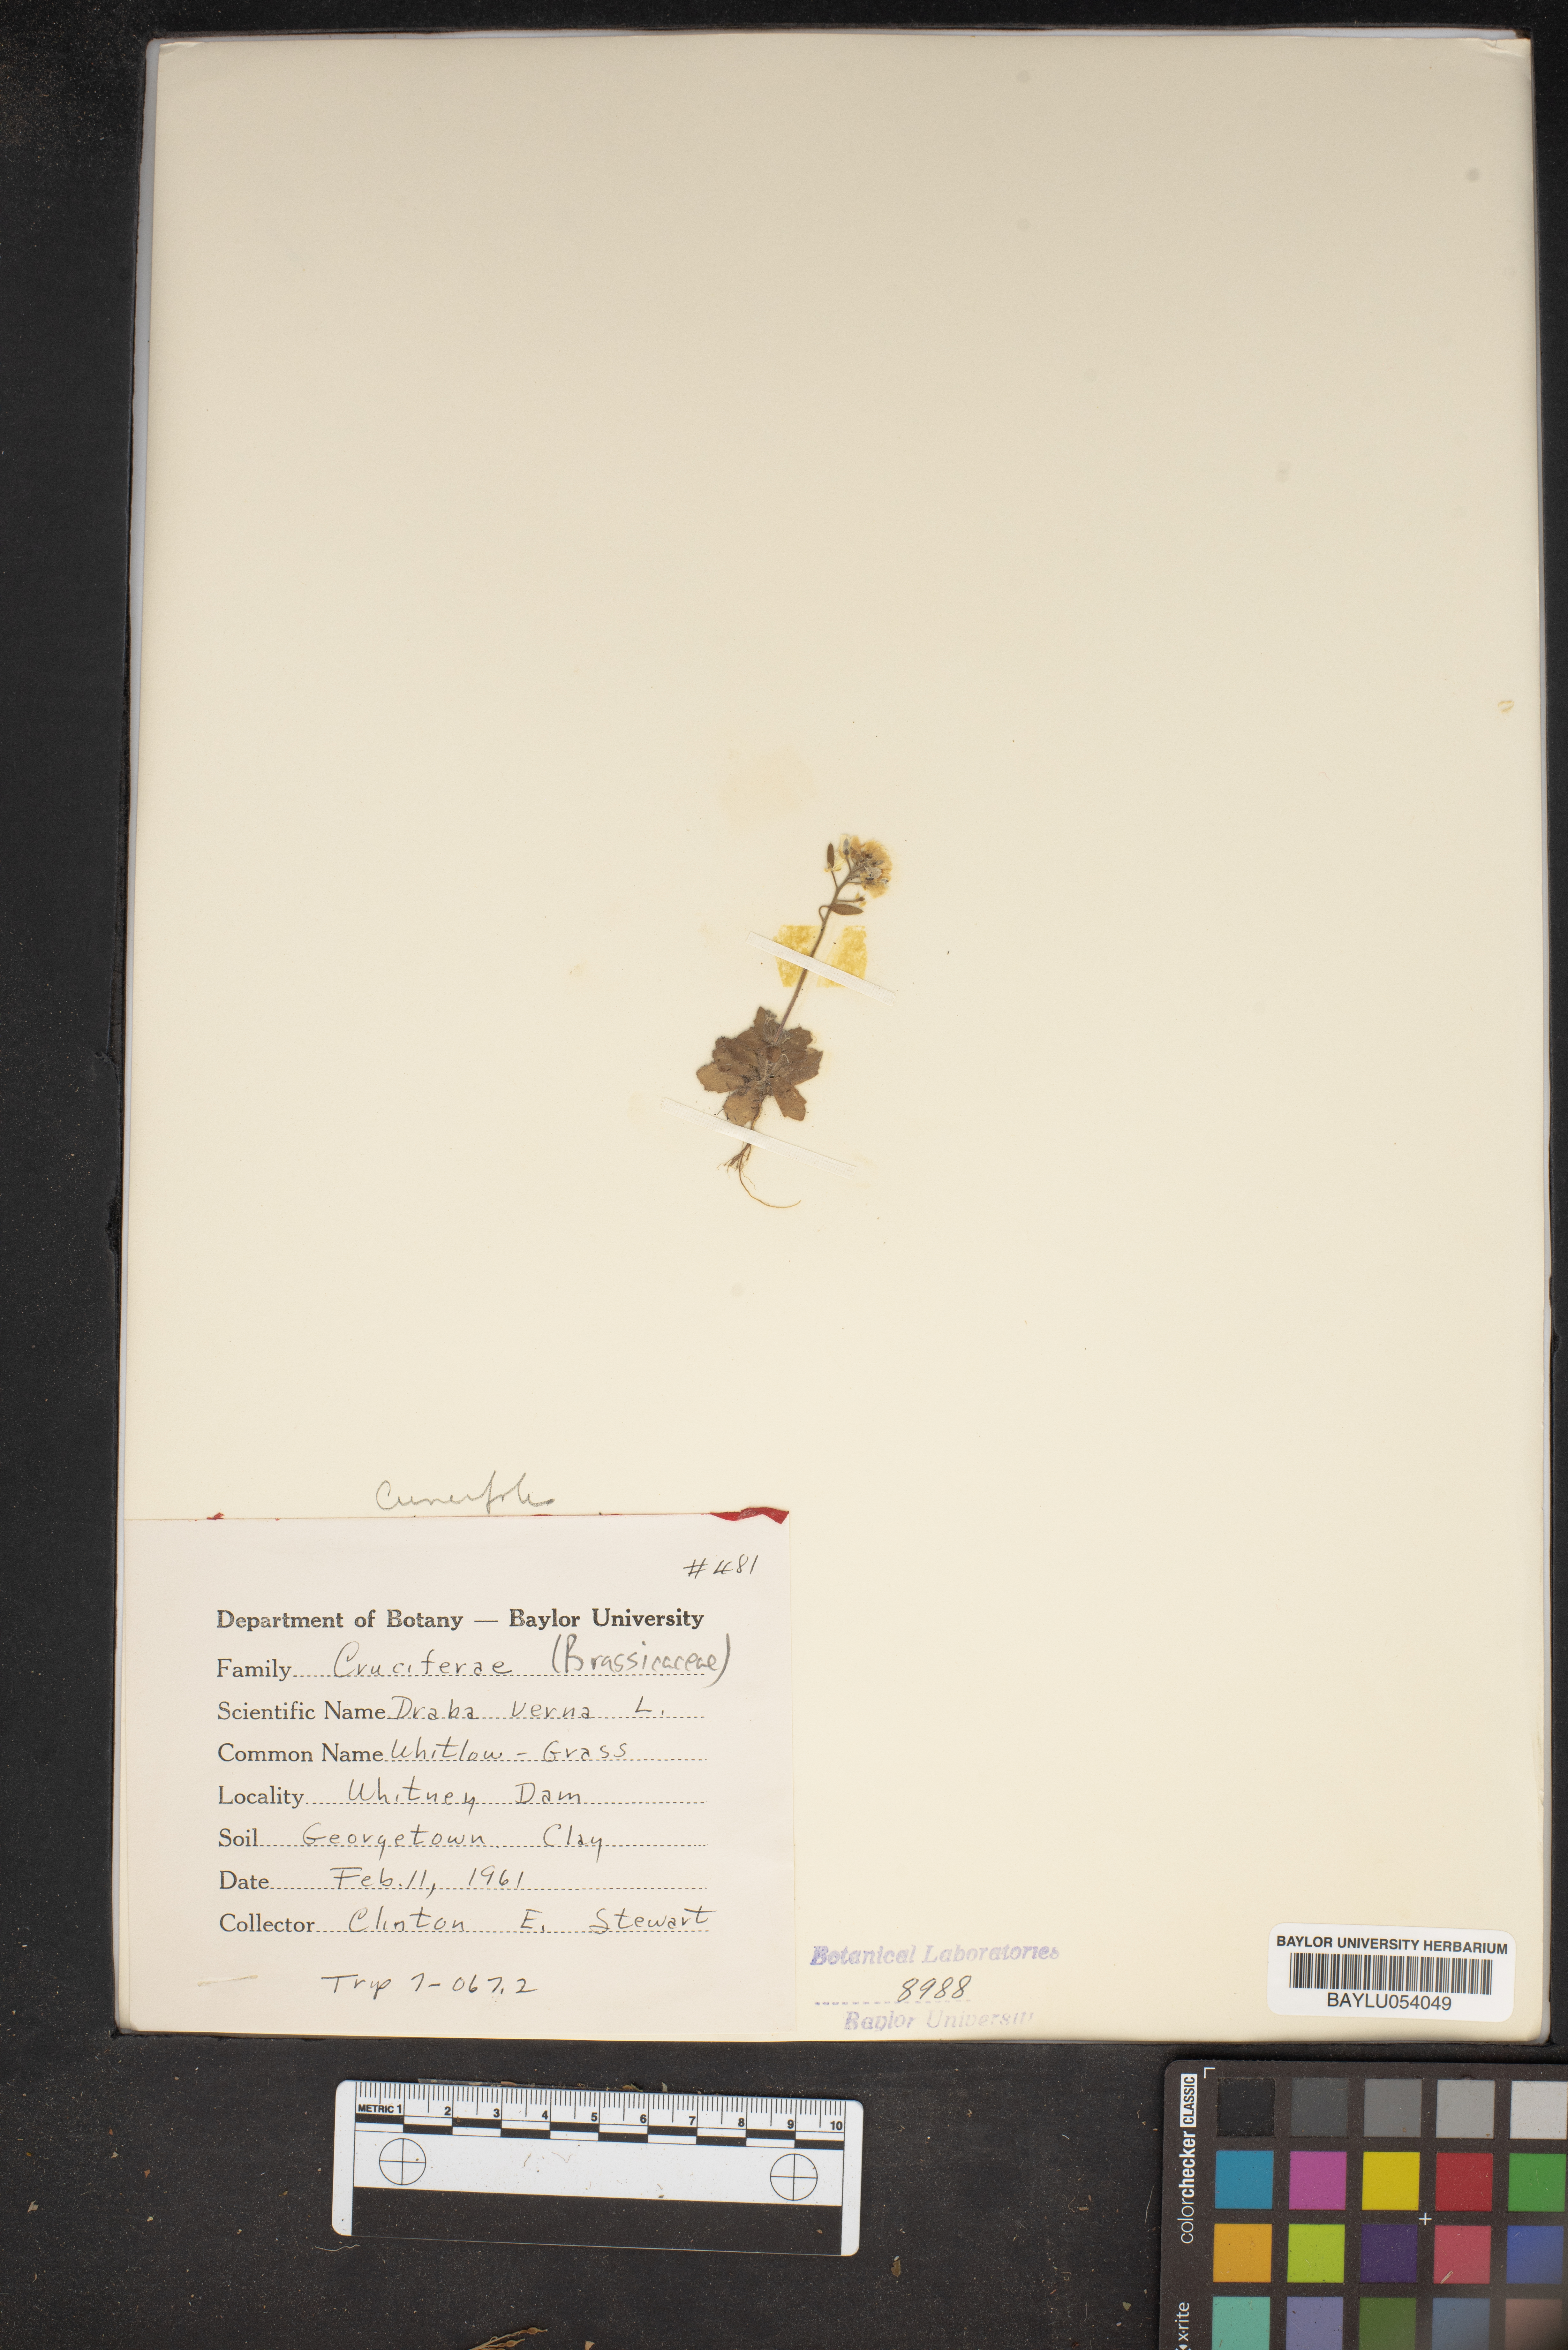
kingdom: Plantae
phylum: Tracheophyta
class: Magnoliopsida
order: Brassicales
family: Brassicaceae
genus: Draba
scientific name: Draba verna
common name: Spring draba
